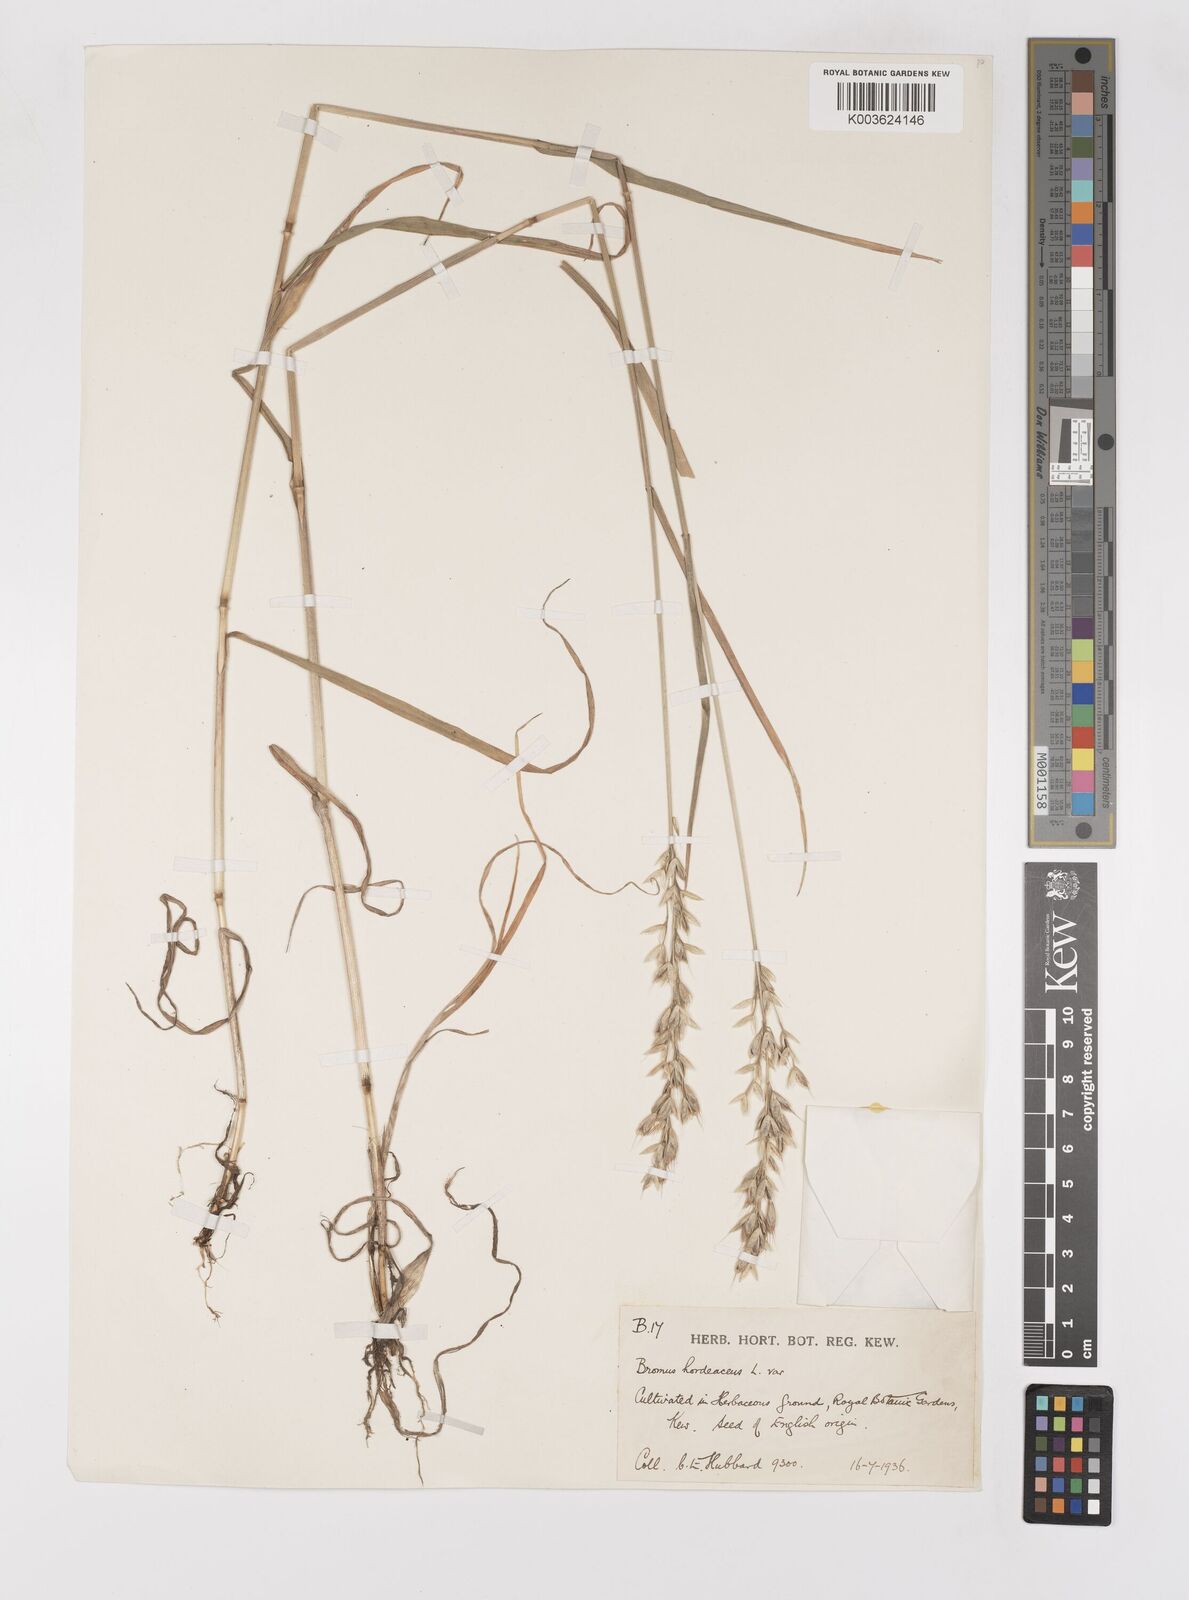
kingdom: Plantae
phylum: Tracheophyta
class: Liliopsida
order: Poales
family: Poaceae
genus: Bromus
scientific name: Bromus hordeaceus
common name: Soft brome
